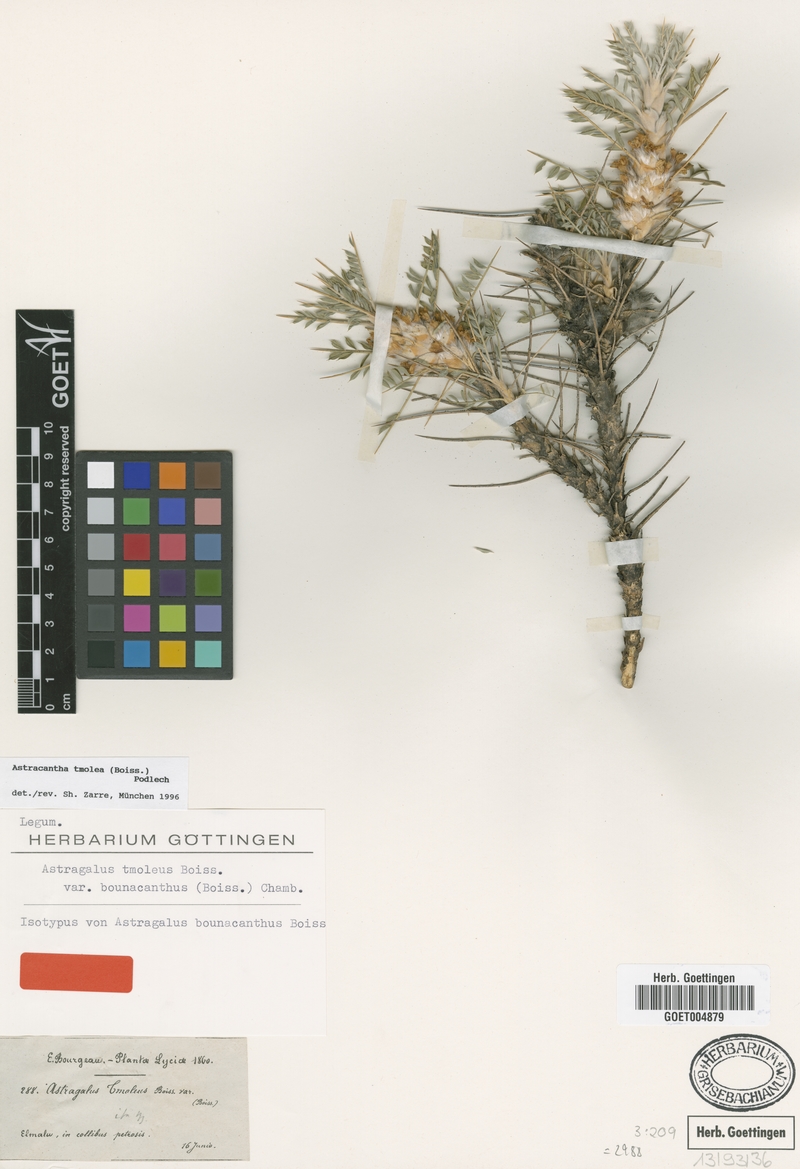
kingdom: Plantae
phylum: Tracheophyta
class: Magnoliopsida
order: Fabales
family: Fabaceae
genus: Astragalus
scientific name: Astragalus tmoleus
